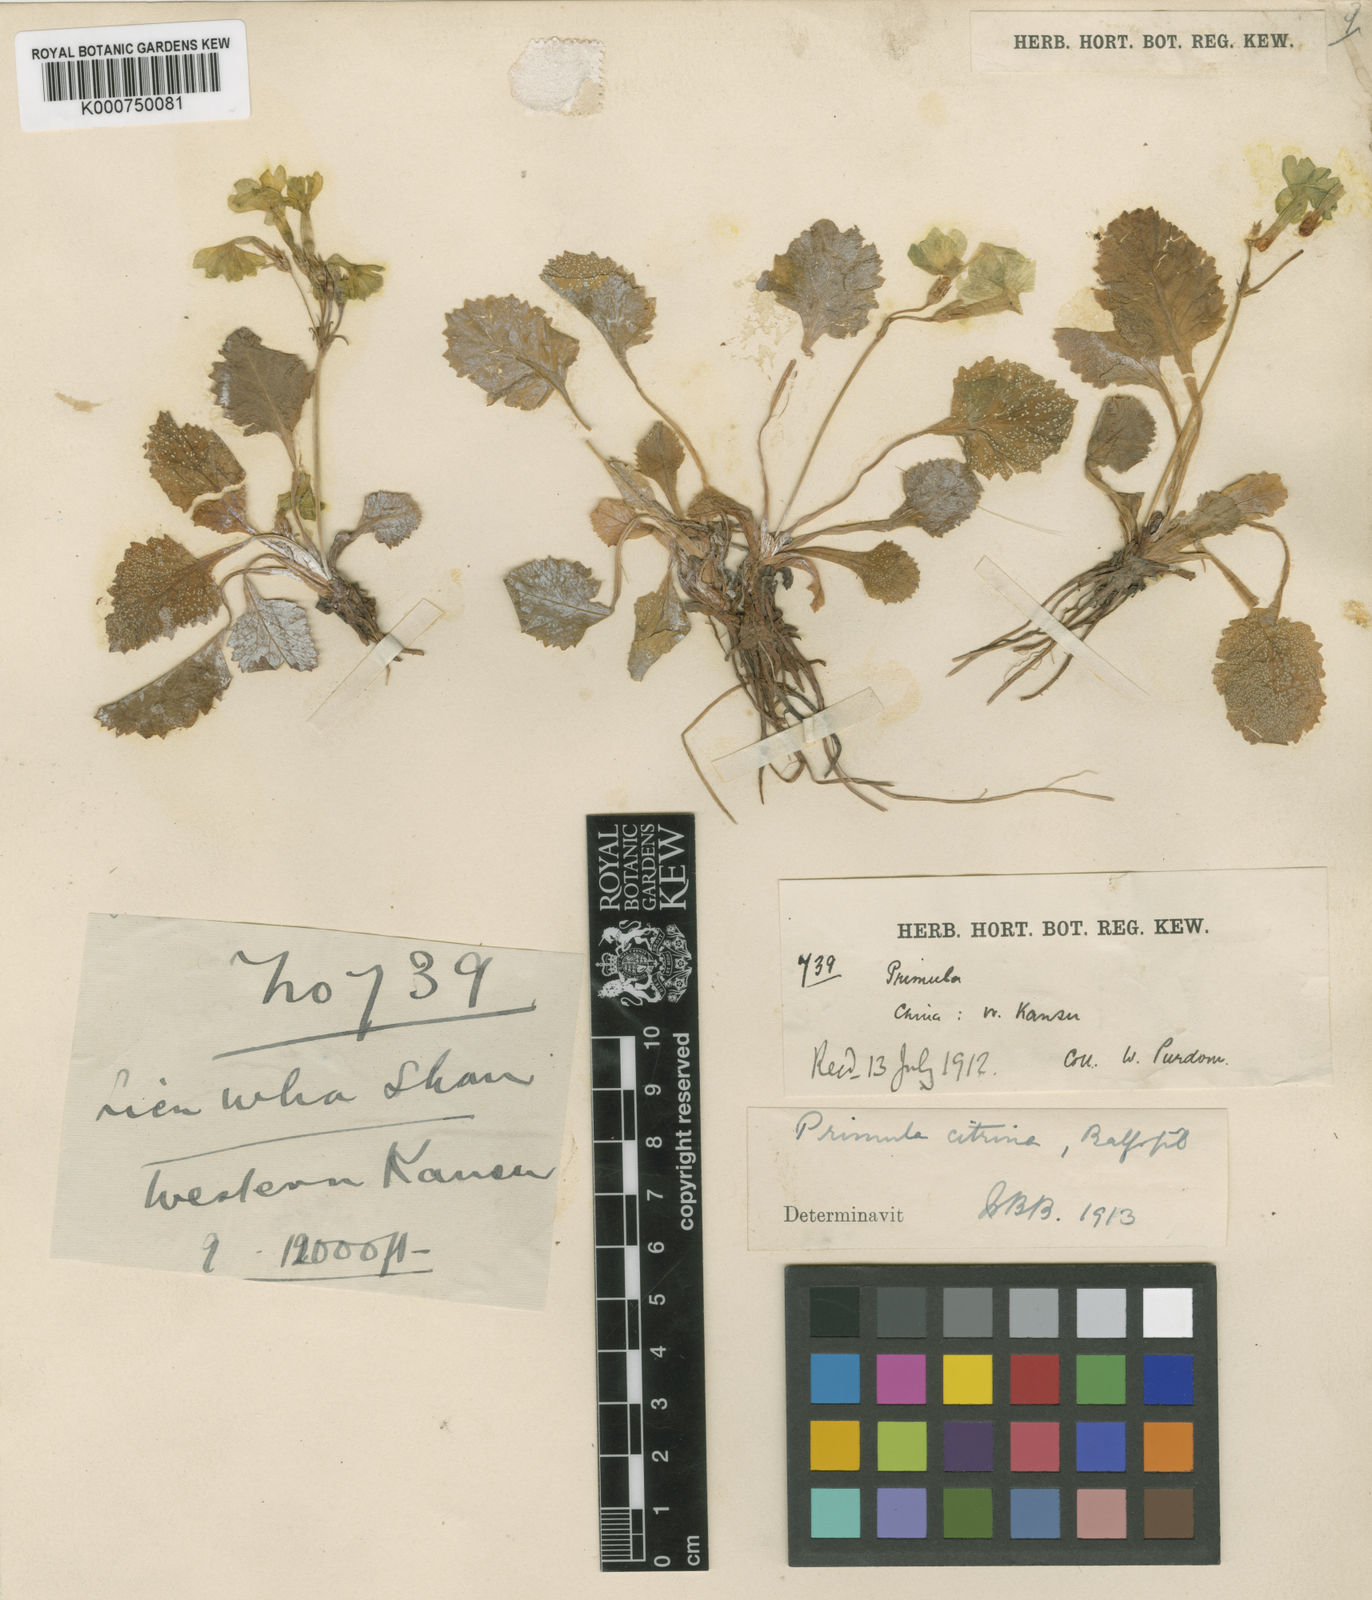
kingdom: Plantae
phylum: Tracheophyta
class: Magnoliopsida
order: Ericales
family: Primulaceae
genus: Primula
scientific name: Primula
